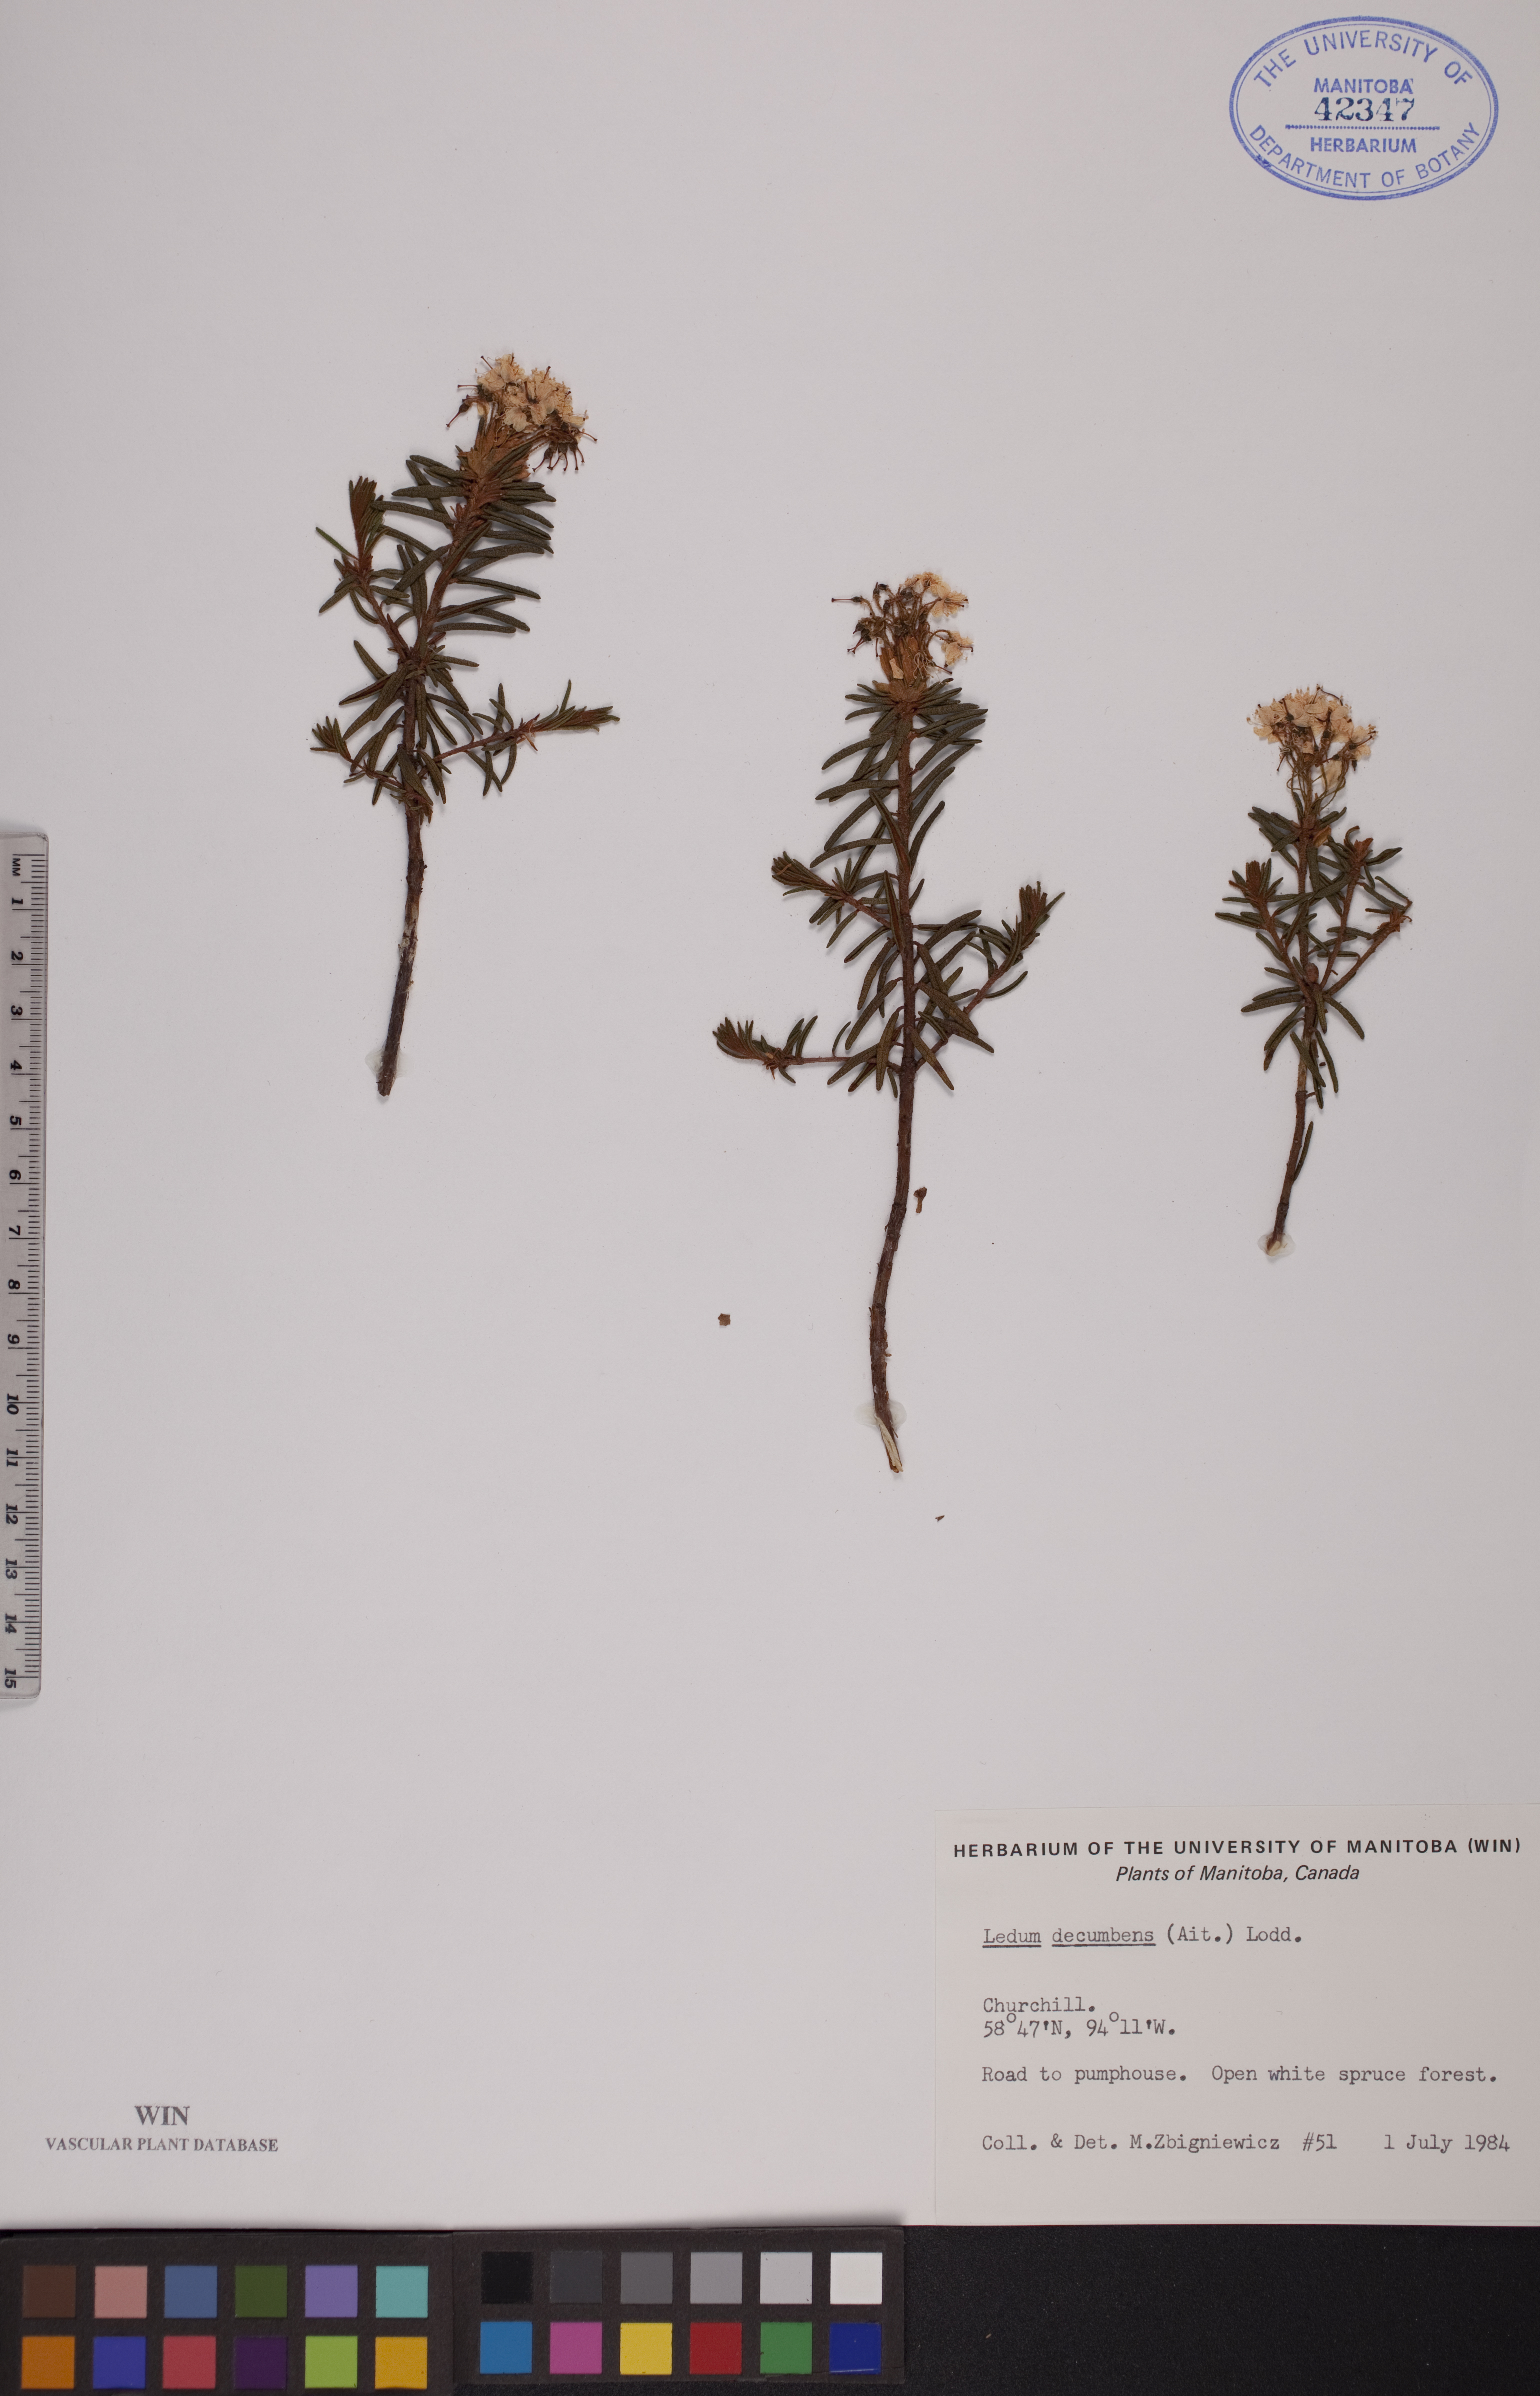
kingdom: Plantae
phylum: Tracheophyta
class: Magnoliopsida
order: Ericales
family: Ericaceae
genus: Rhododendron
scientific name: Rhododendron tomentosum
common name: Marsh labrador tea
